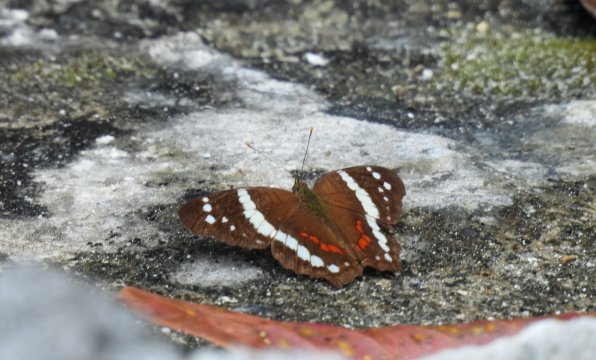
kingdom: Animalia
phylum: Arthropoda
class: Insecta
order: Lepidoptera
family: Nymphalidae
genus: Anartia
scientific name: Anartia fatima
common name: Banded Peacock
